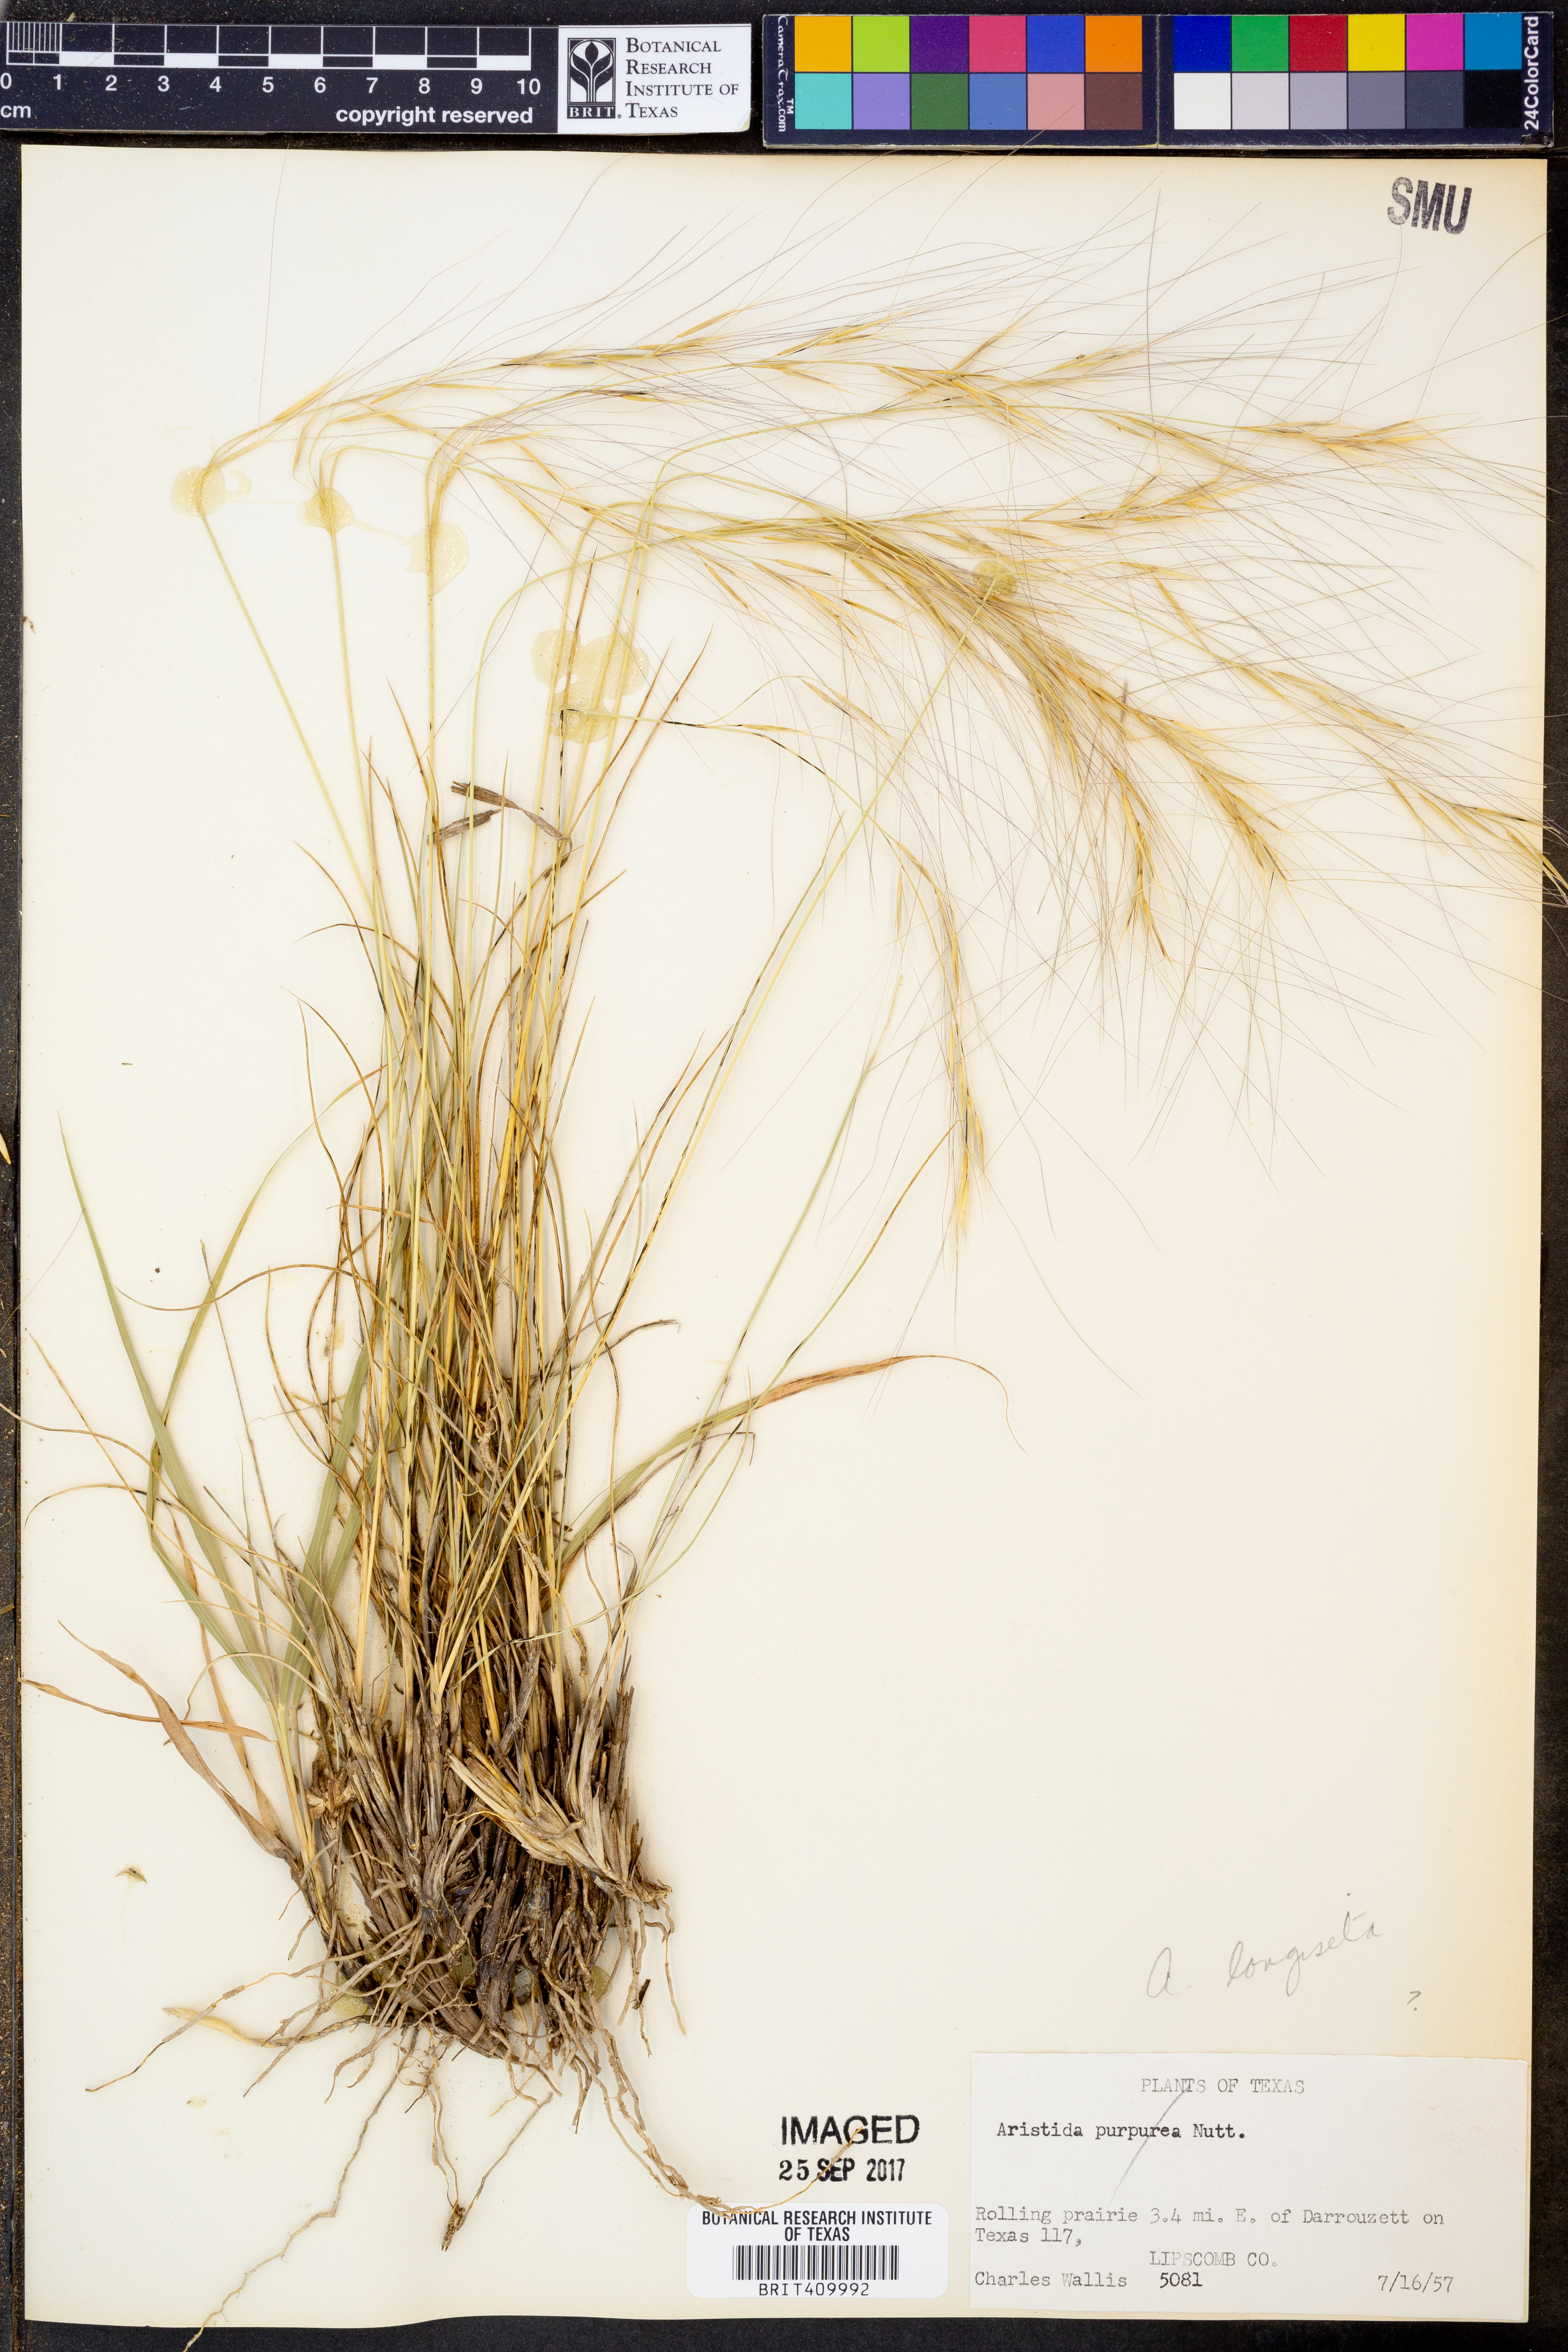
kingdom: Plantae
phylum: Tracheophyta
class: Liliopsida
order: Poales
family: Poaceae
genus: Aristida
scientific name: Aristida purpurea
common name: Purple threeawn
